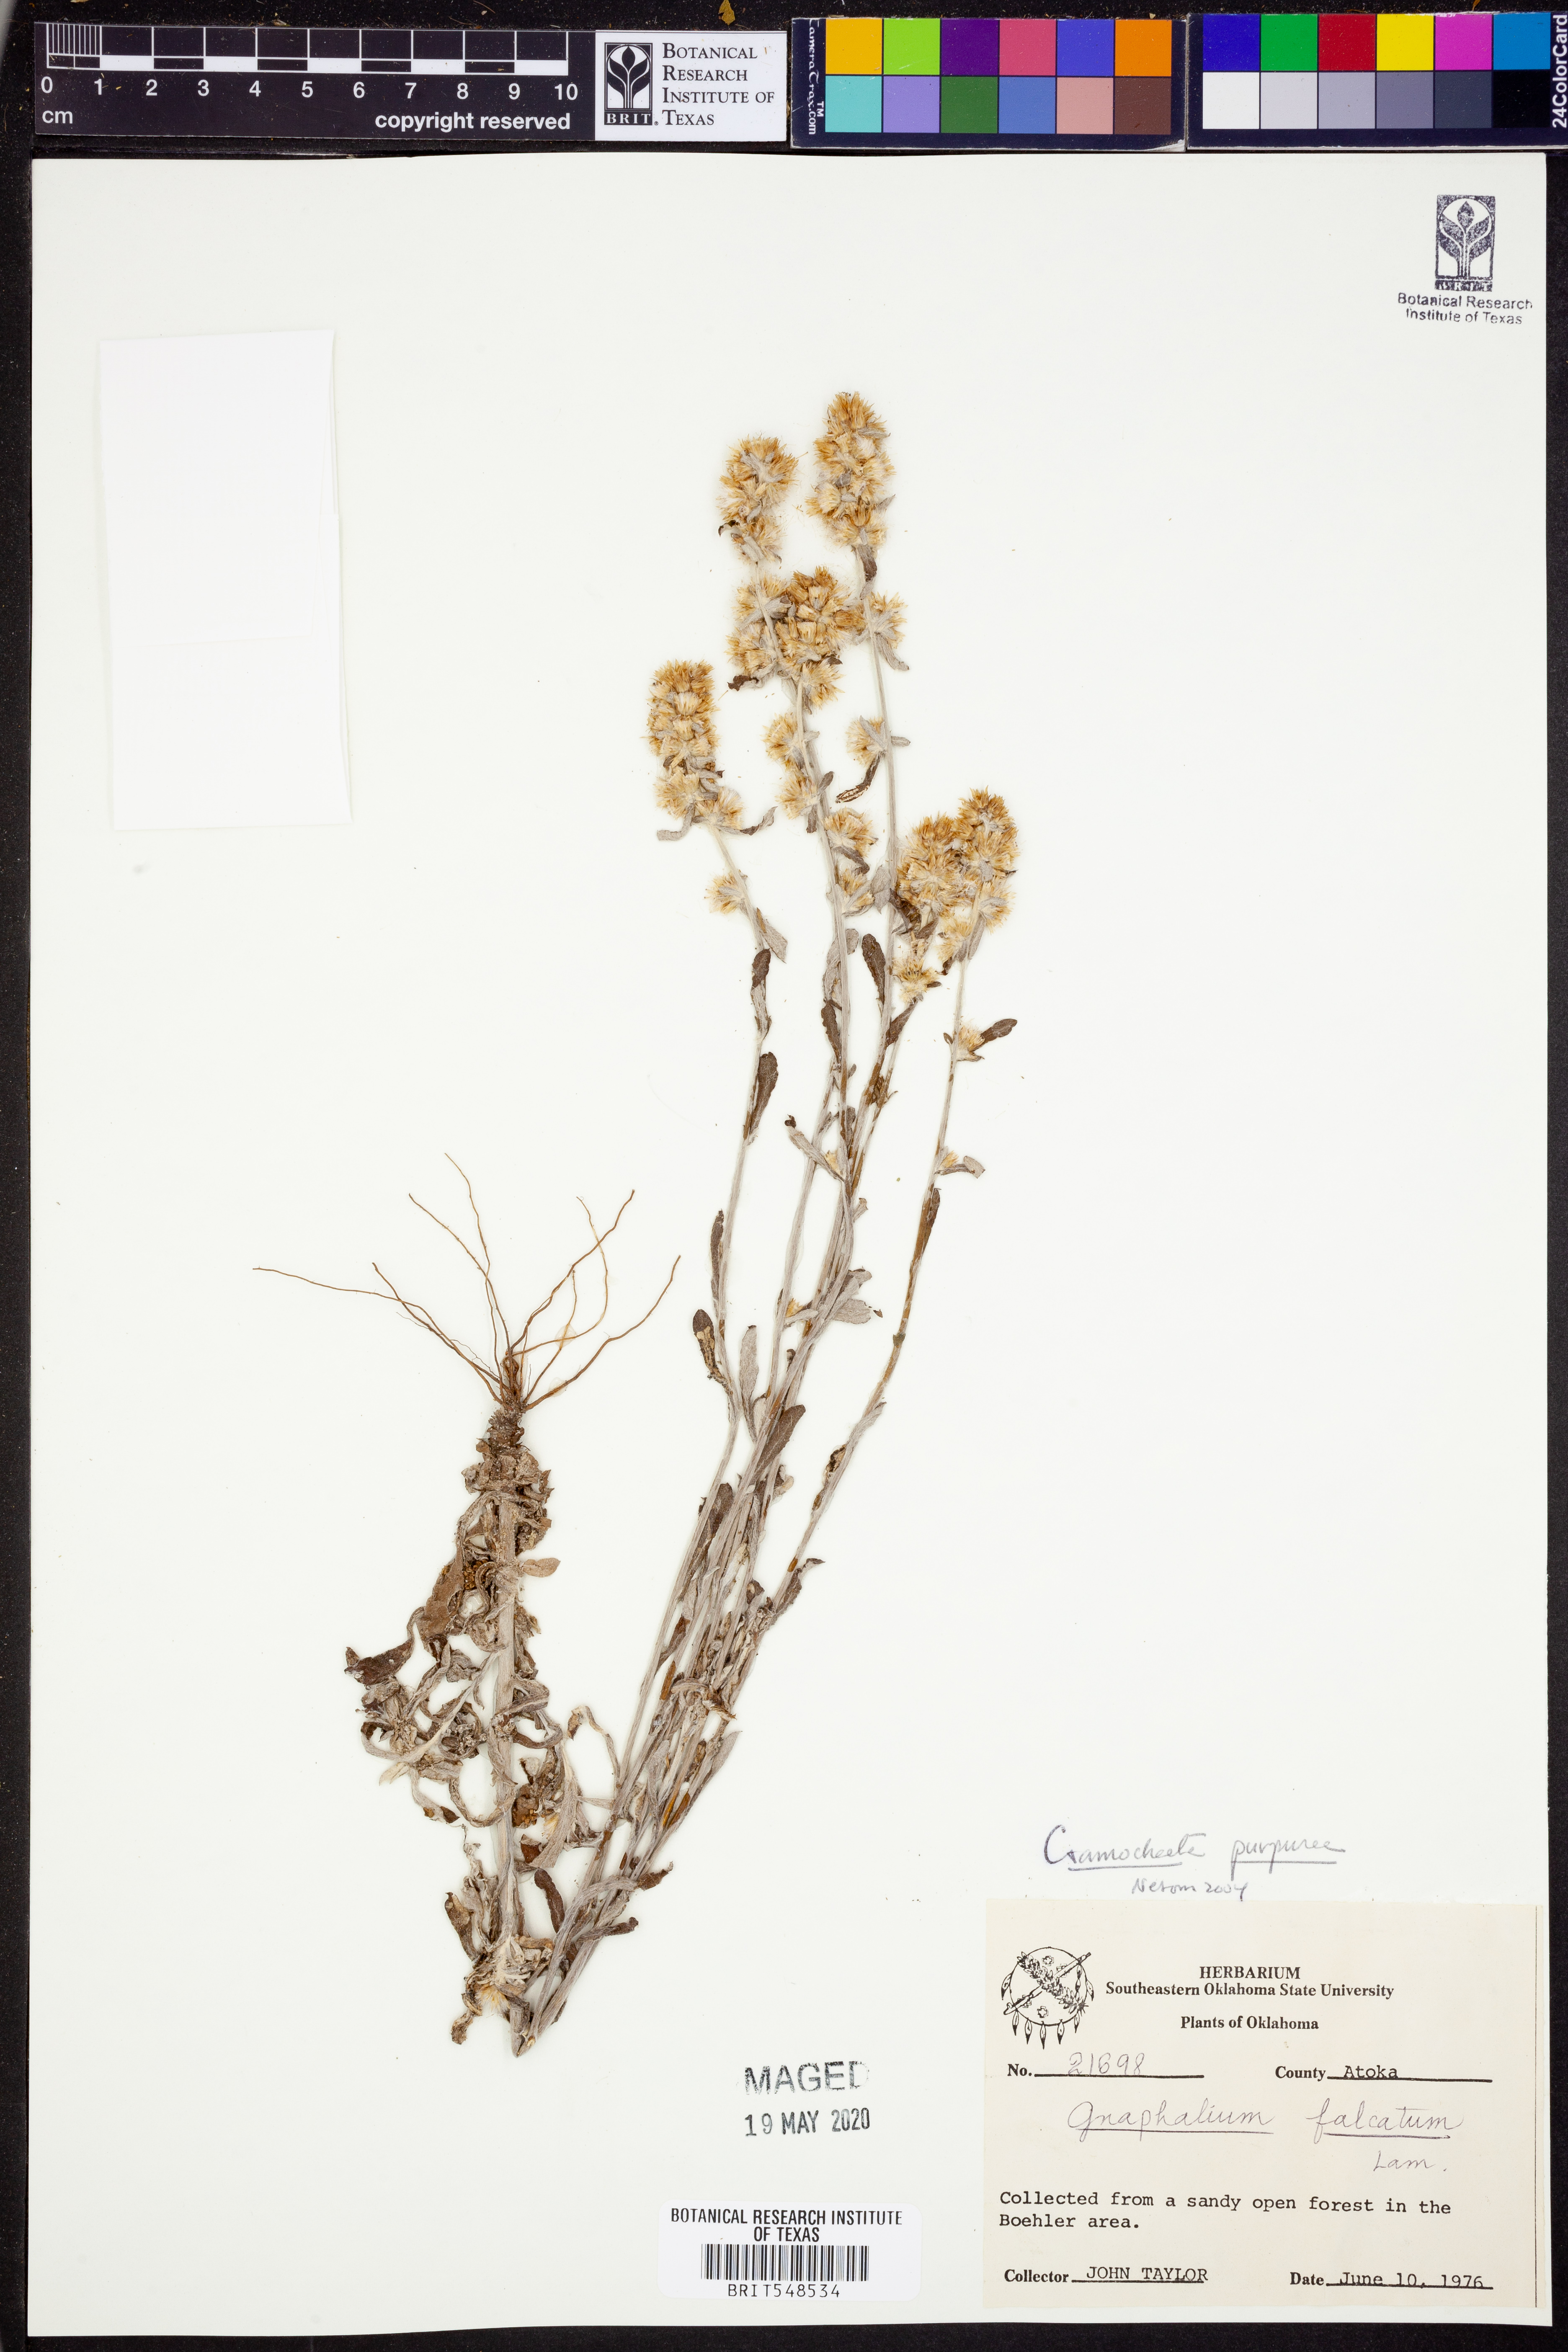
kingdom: Plantae
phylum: Tracheophyta
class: Magnoliopsida
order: Asterales
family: Asteraceae
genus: Gamochaeta
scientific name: Gamochaeta purpurea
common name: Purple cudweed
